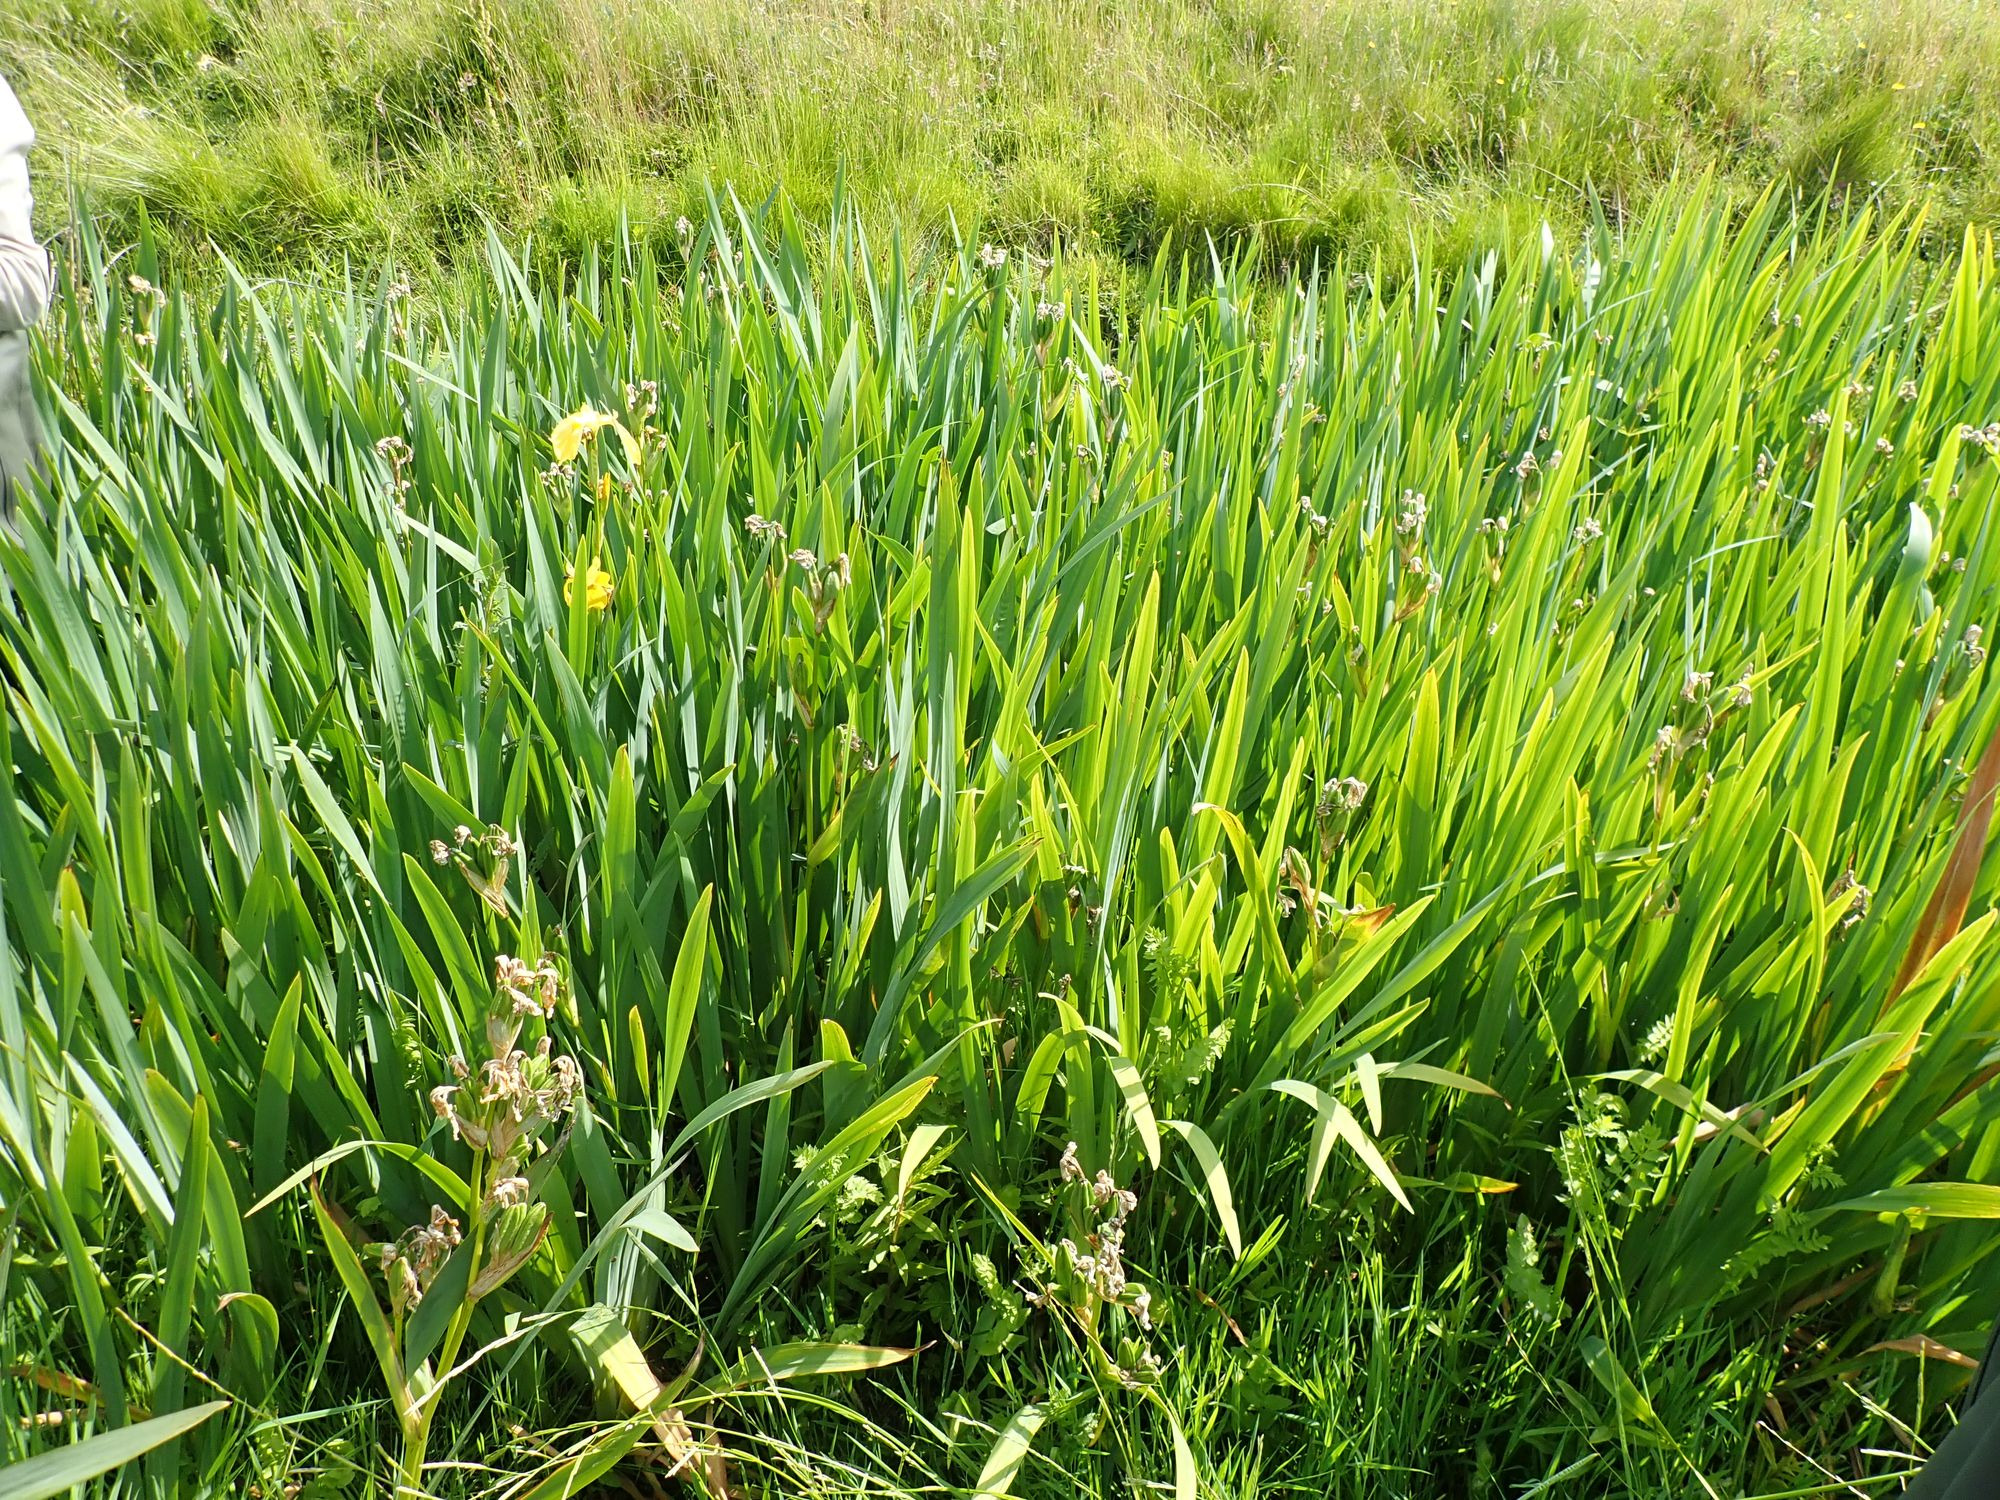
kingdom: Plantae
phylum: Tracheophyta
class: Liliopsida
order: Asparagales
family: Iridaceae
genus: Iris
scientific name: Iris pseudacorus
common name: Gul iris
